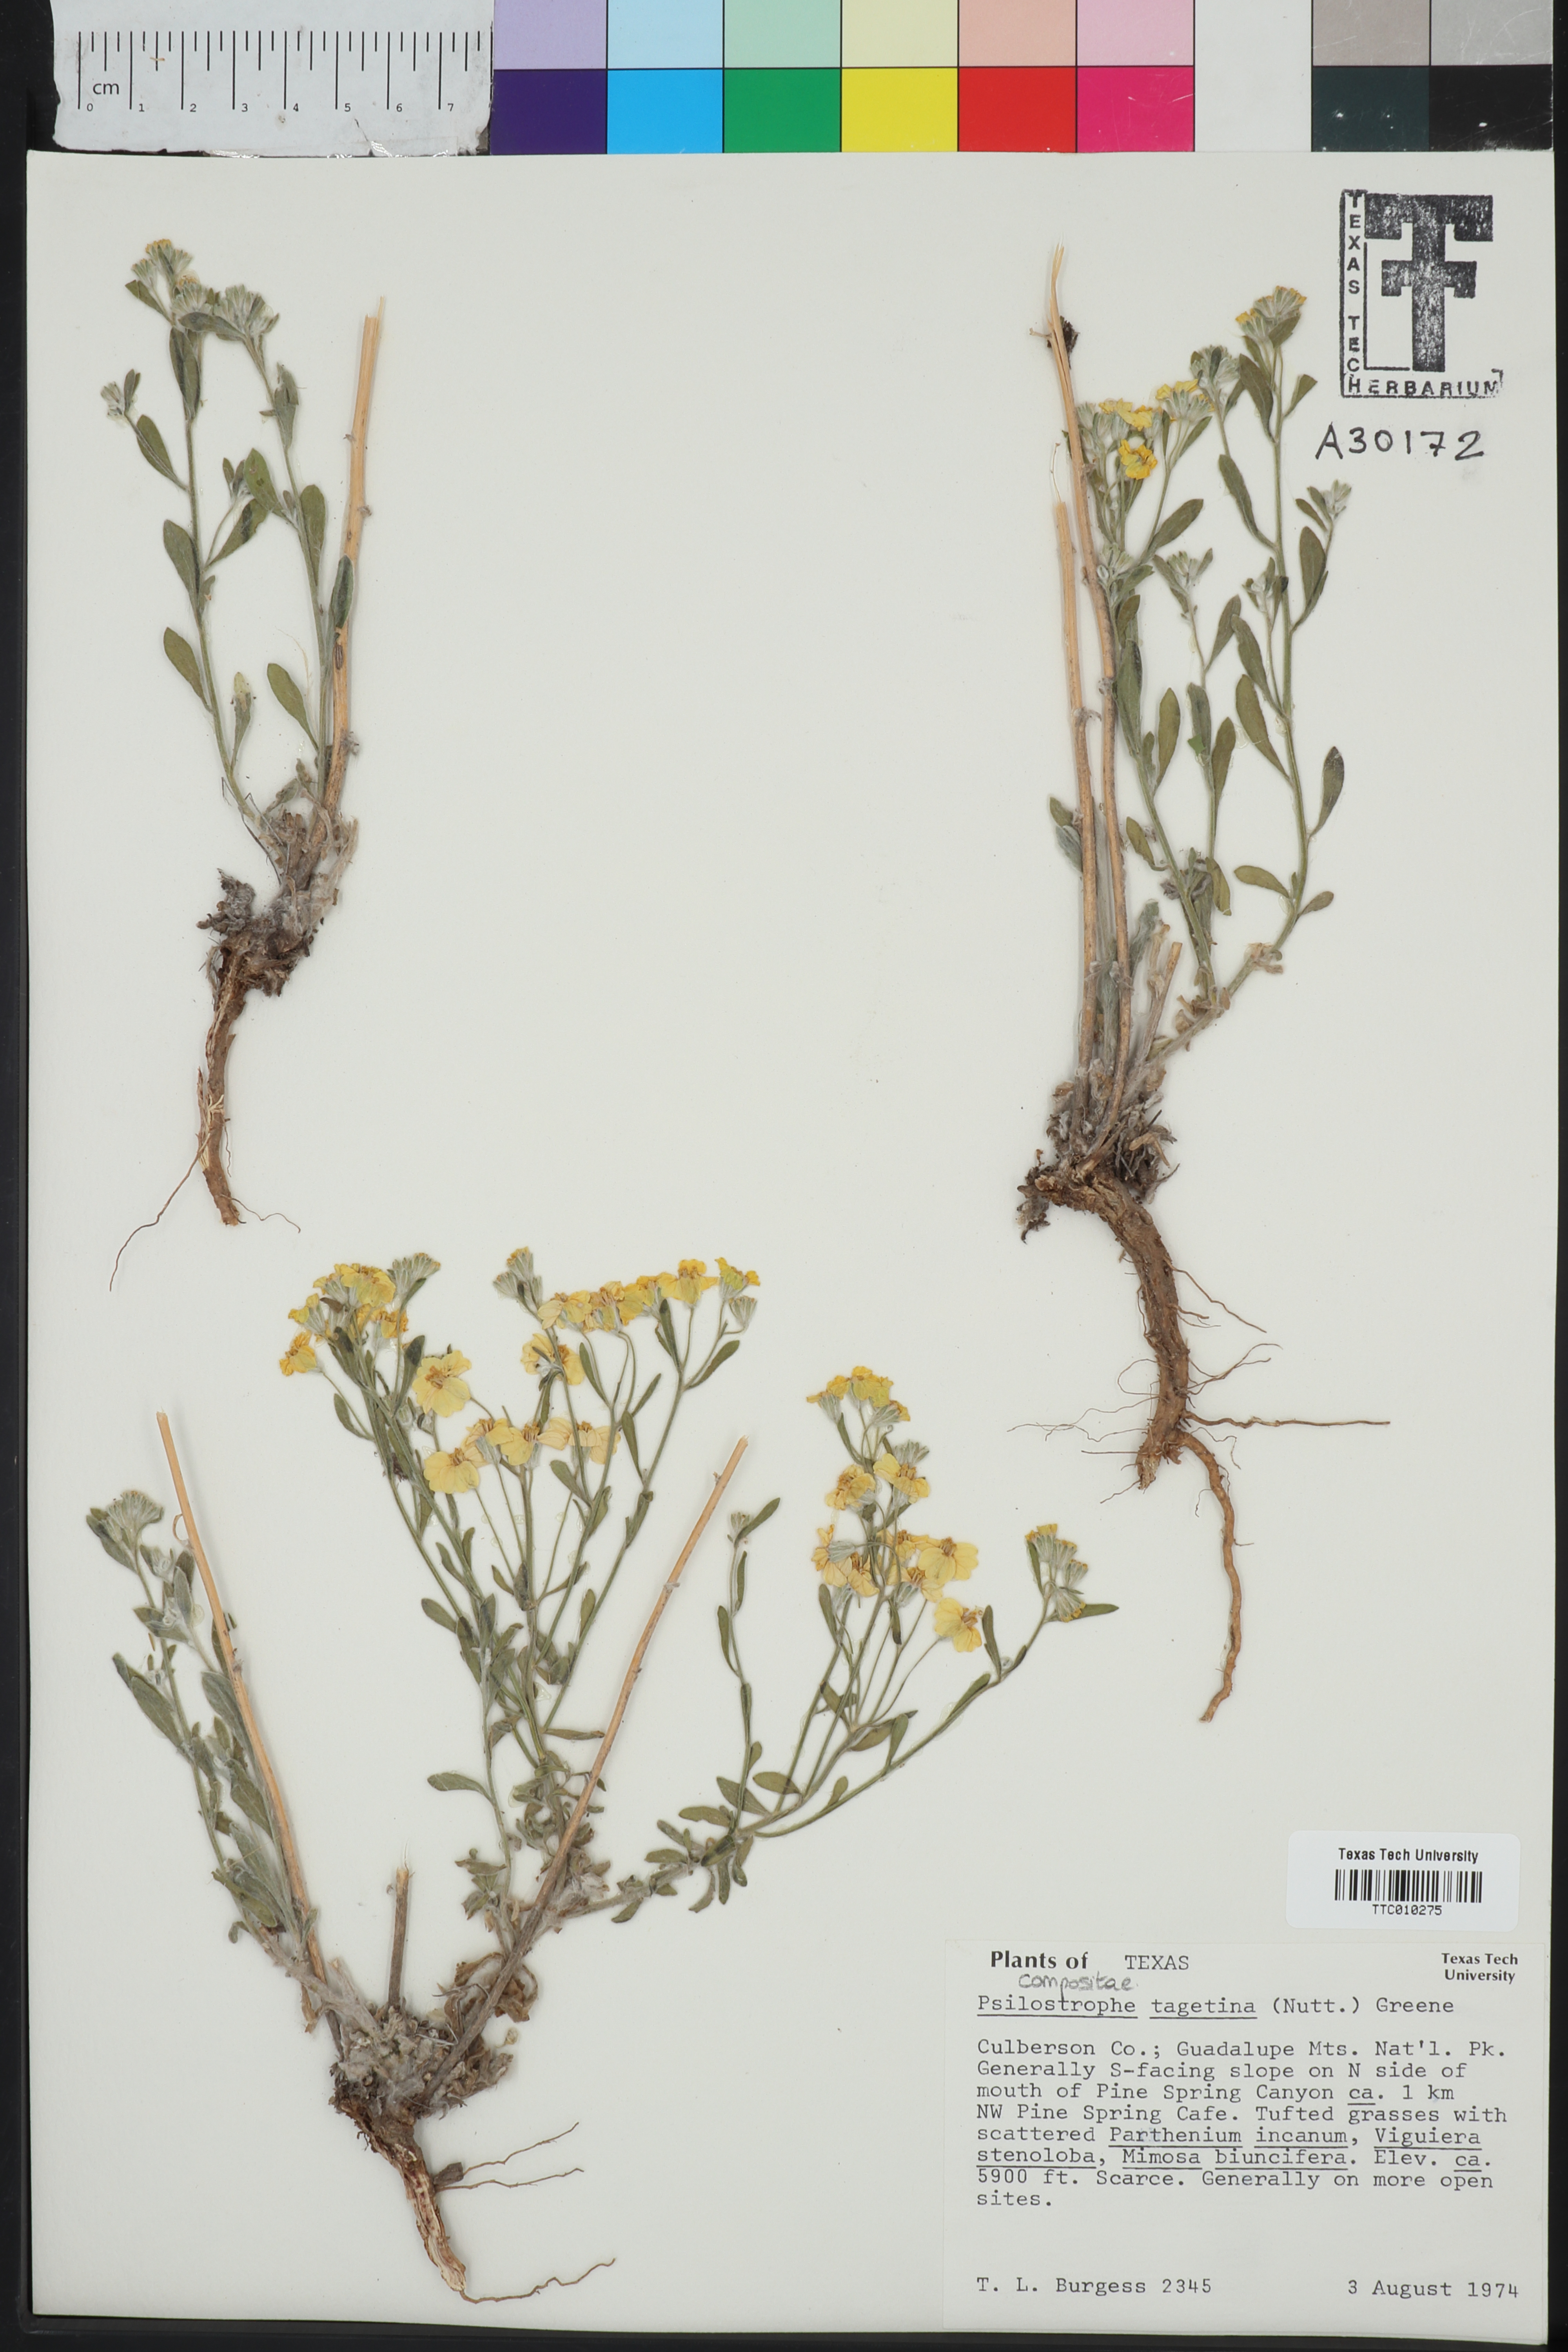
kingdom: Plantae
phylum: Tracheophyta
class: Magnoliopsida
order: Asterales
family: Asteraceae
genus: Psilostrophe
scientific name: Psilostrophe tagetina
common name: Marigold paper-flower
